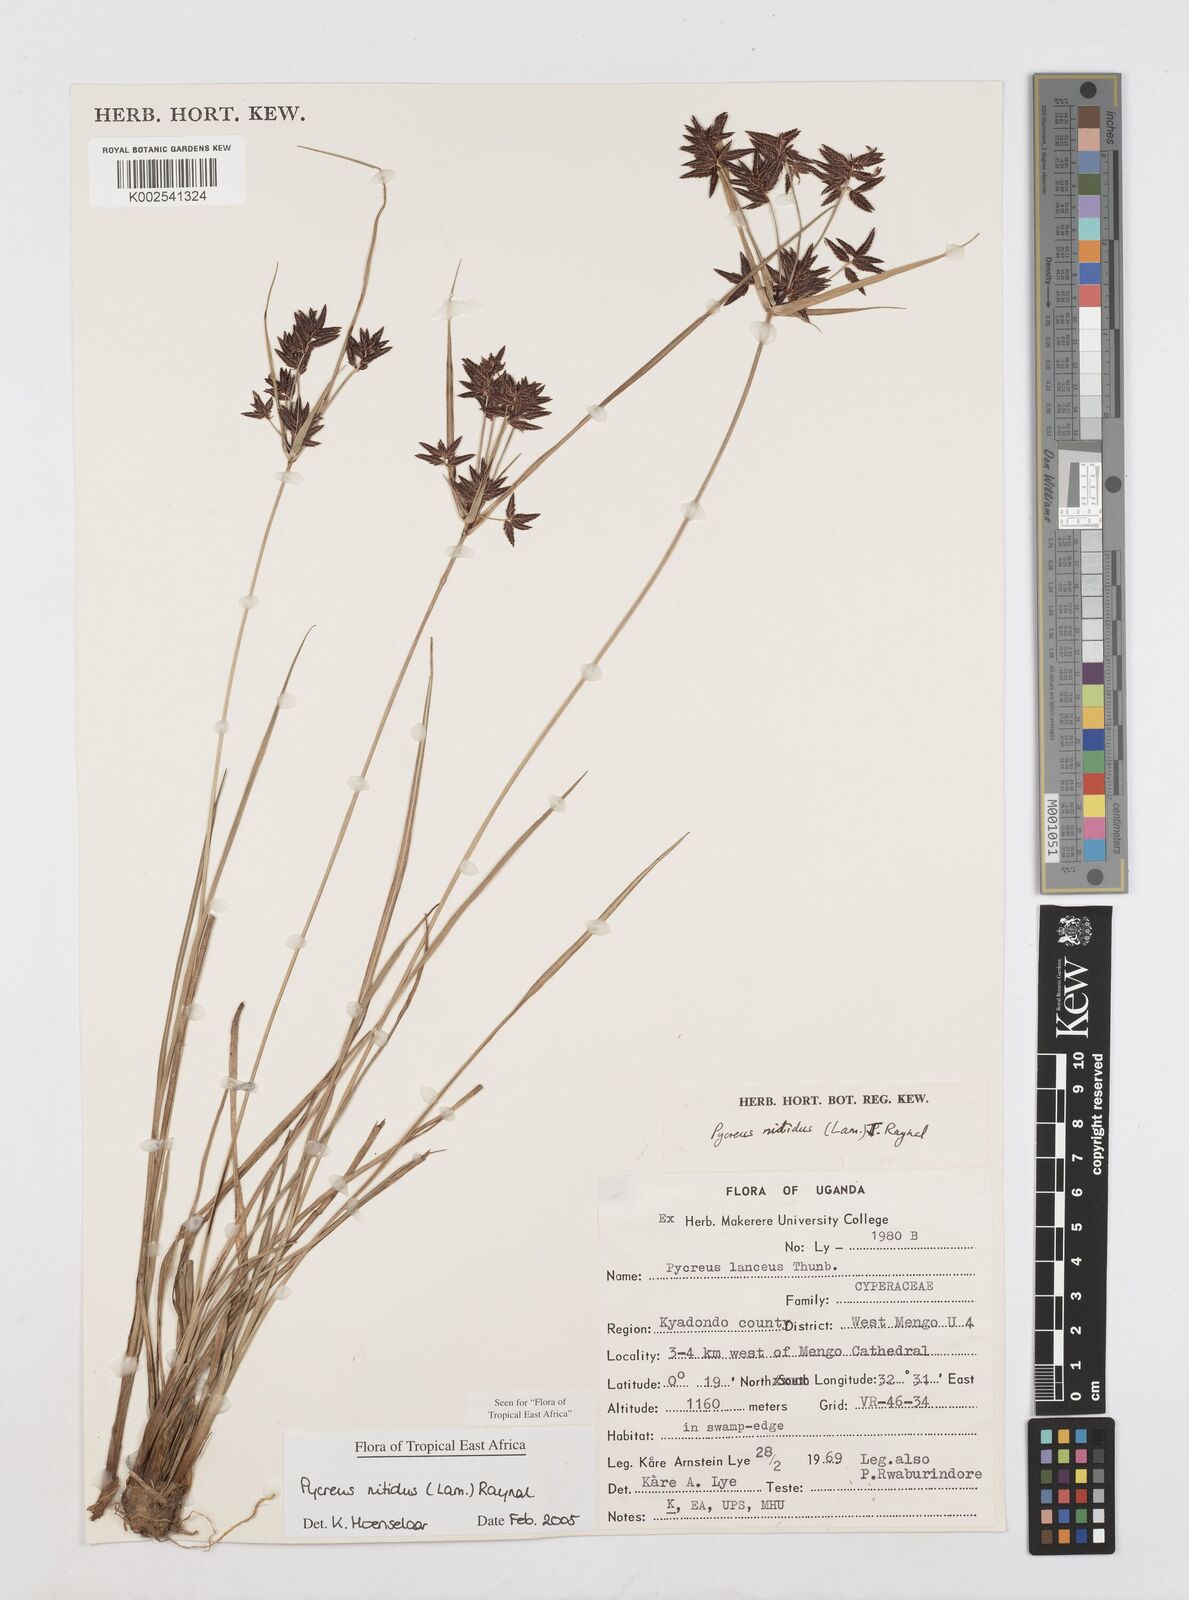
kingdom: Plantae
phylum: Tracheophyta
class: Liliopsida
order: Poales
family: Cyperaceae
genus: Cyperus
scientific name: Cyperus nitidus
